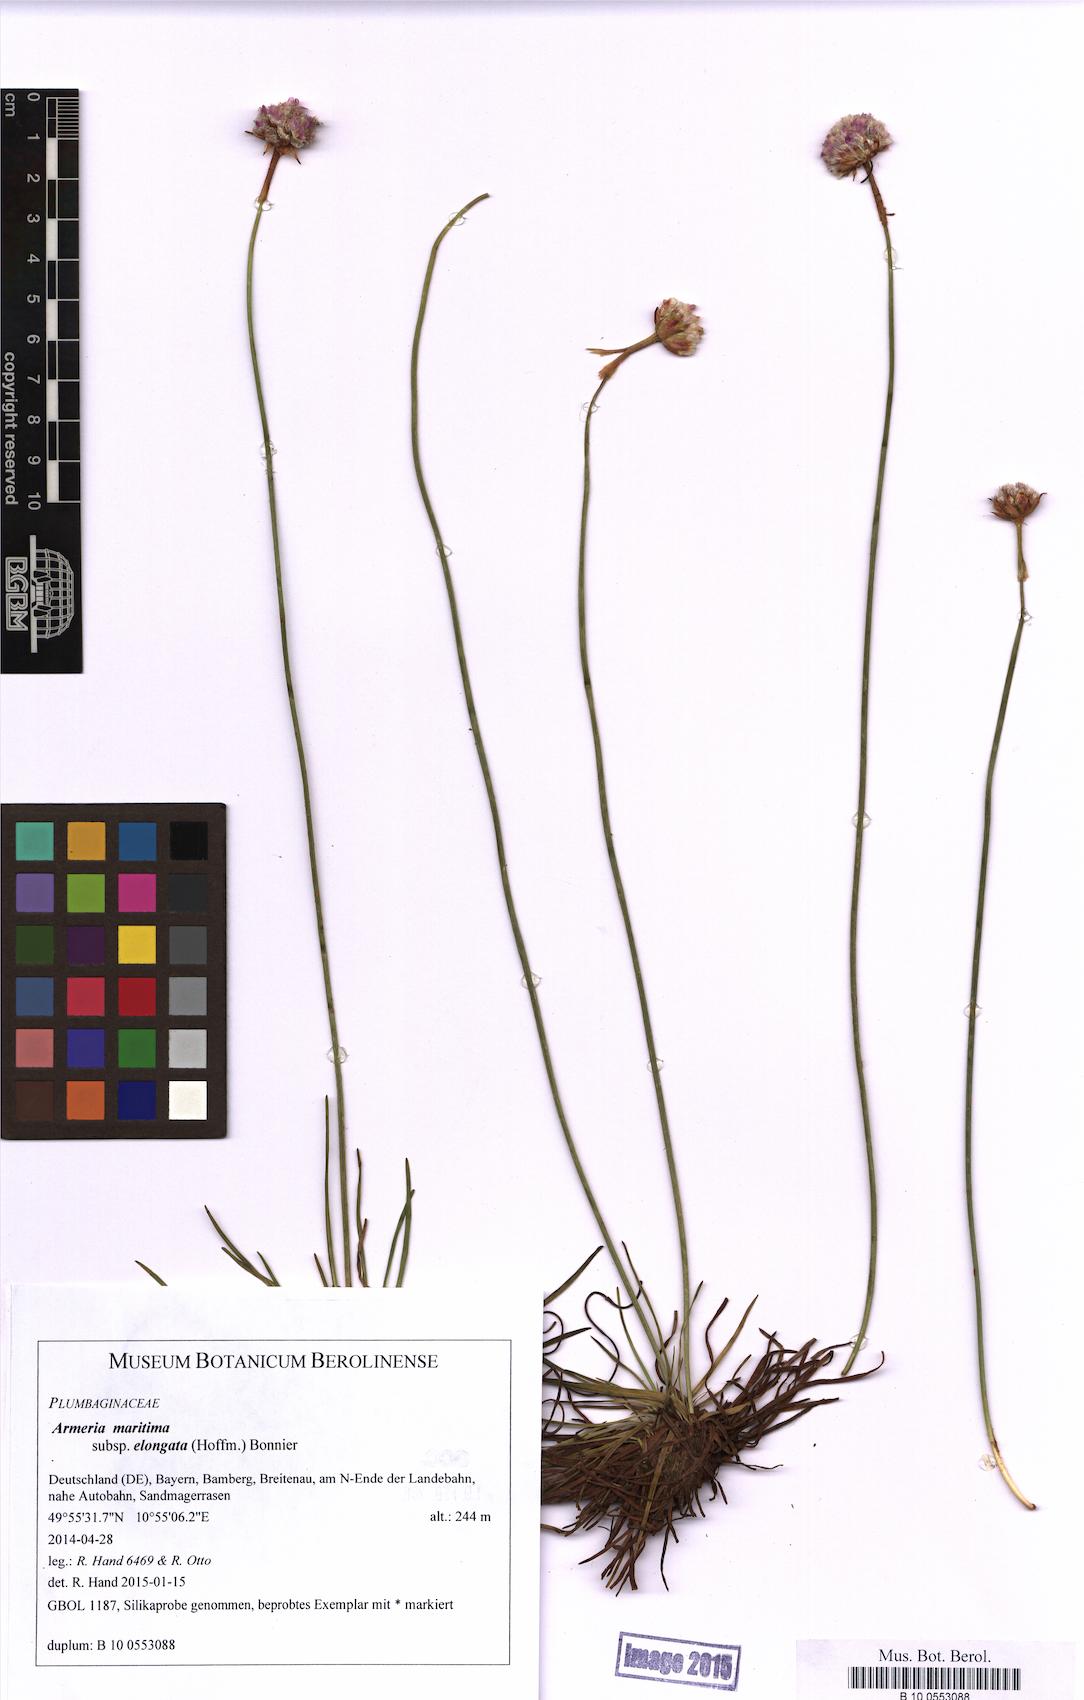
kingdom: Plantae
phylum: Tracheophyta
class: Magnoliopsida
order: Caryophyllales
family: Plumbaginaceae
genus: Armeria
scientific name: Armeria maritima
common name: Thrift
